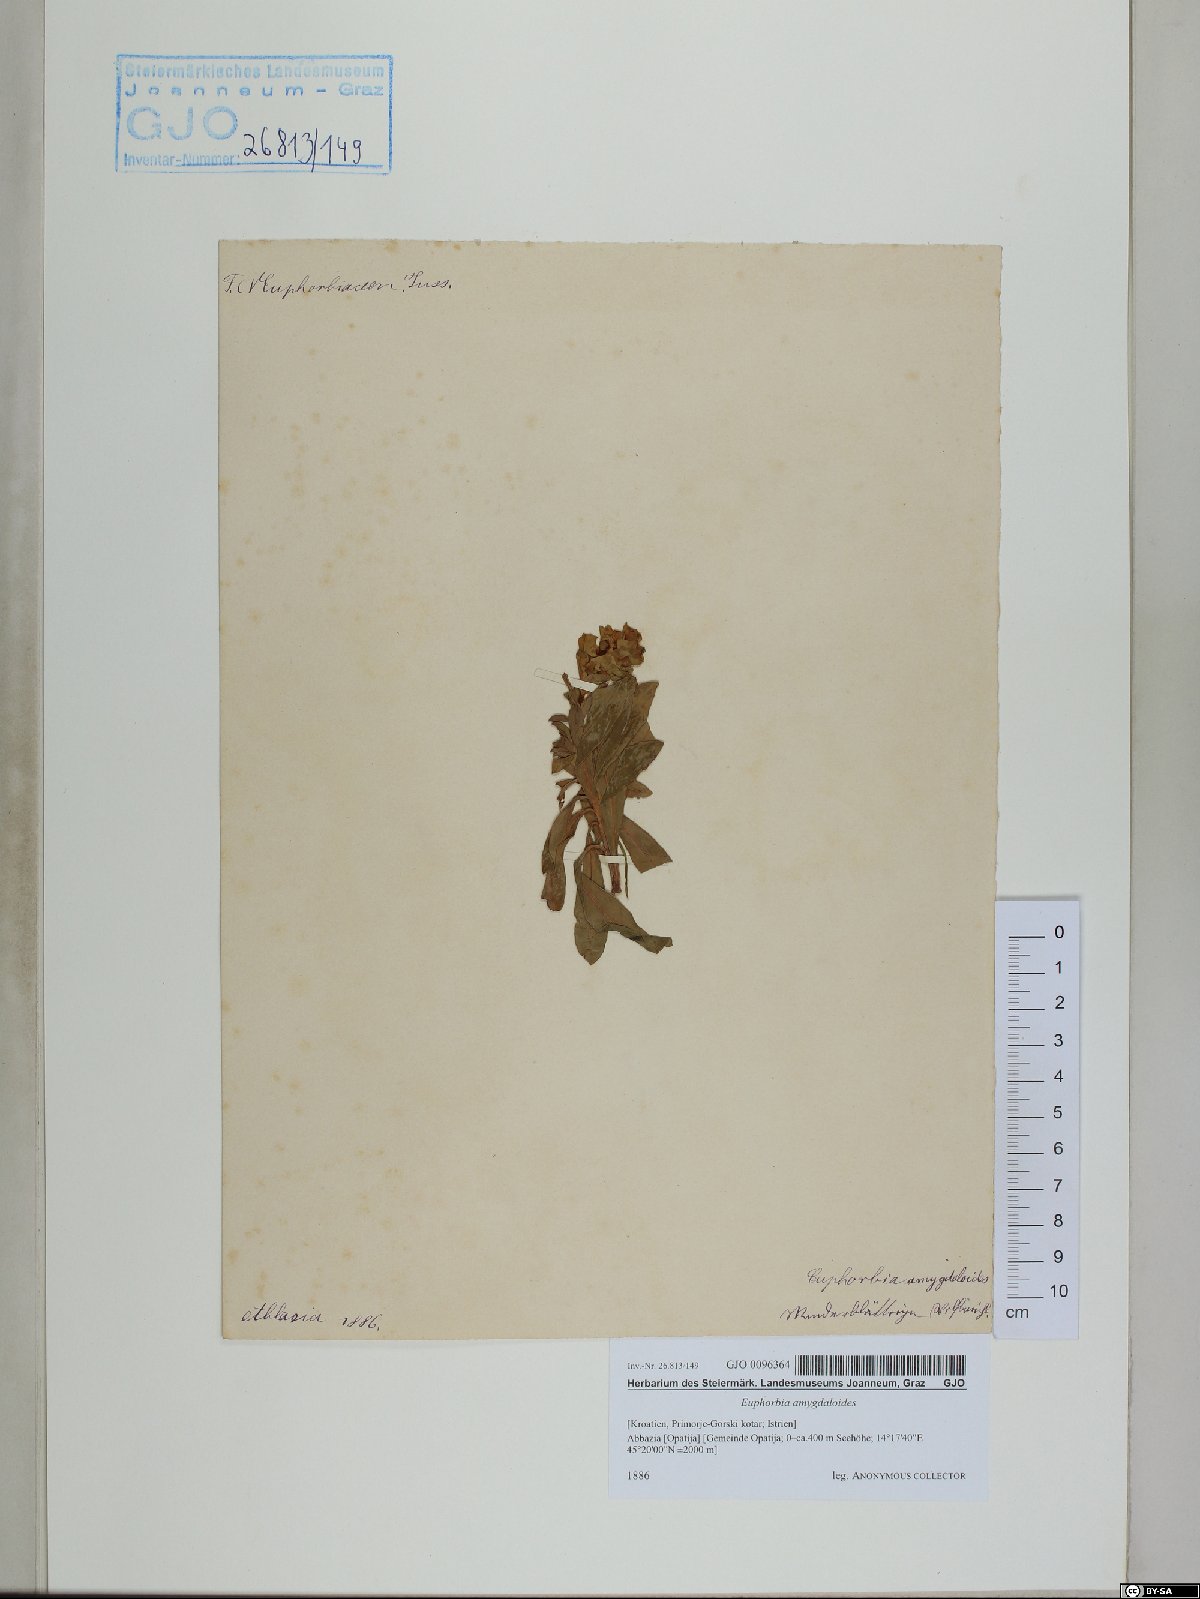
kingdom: Plantae
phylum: Tracheophyta
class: Magnoliopsida
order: Malpighiales
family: Euphorbiaceae
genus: Euphorbia
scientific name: Euphorbia amygdaloides
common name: Wood spurge
